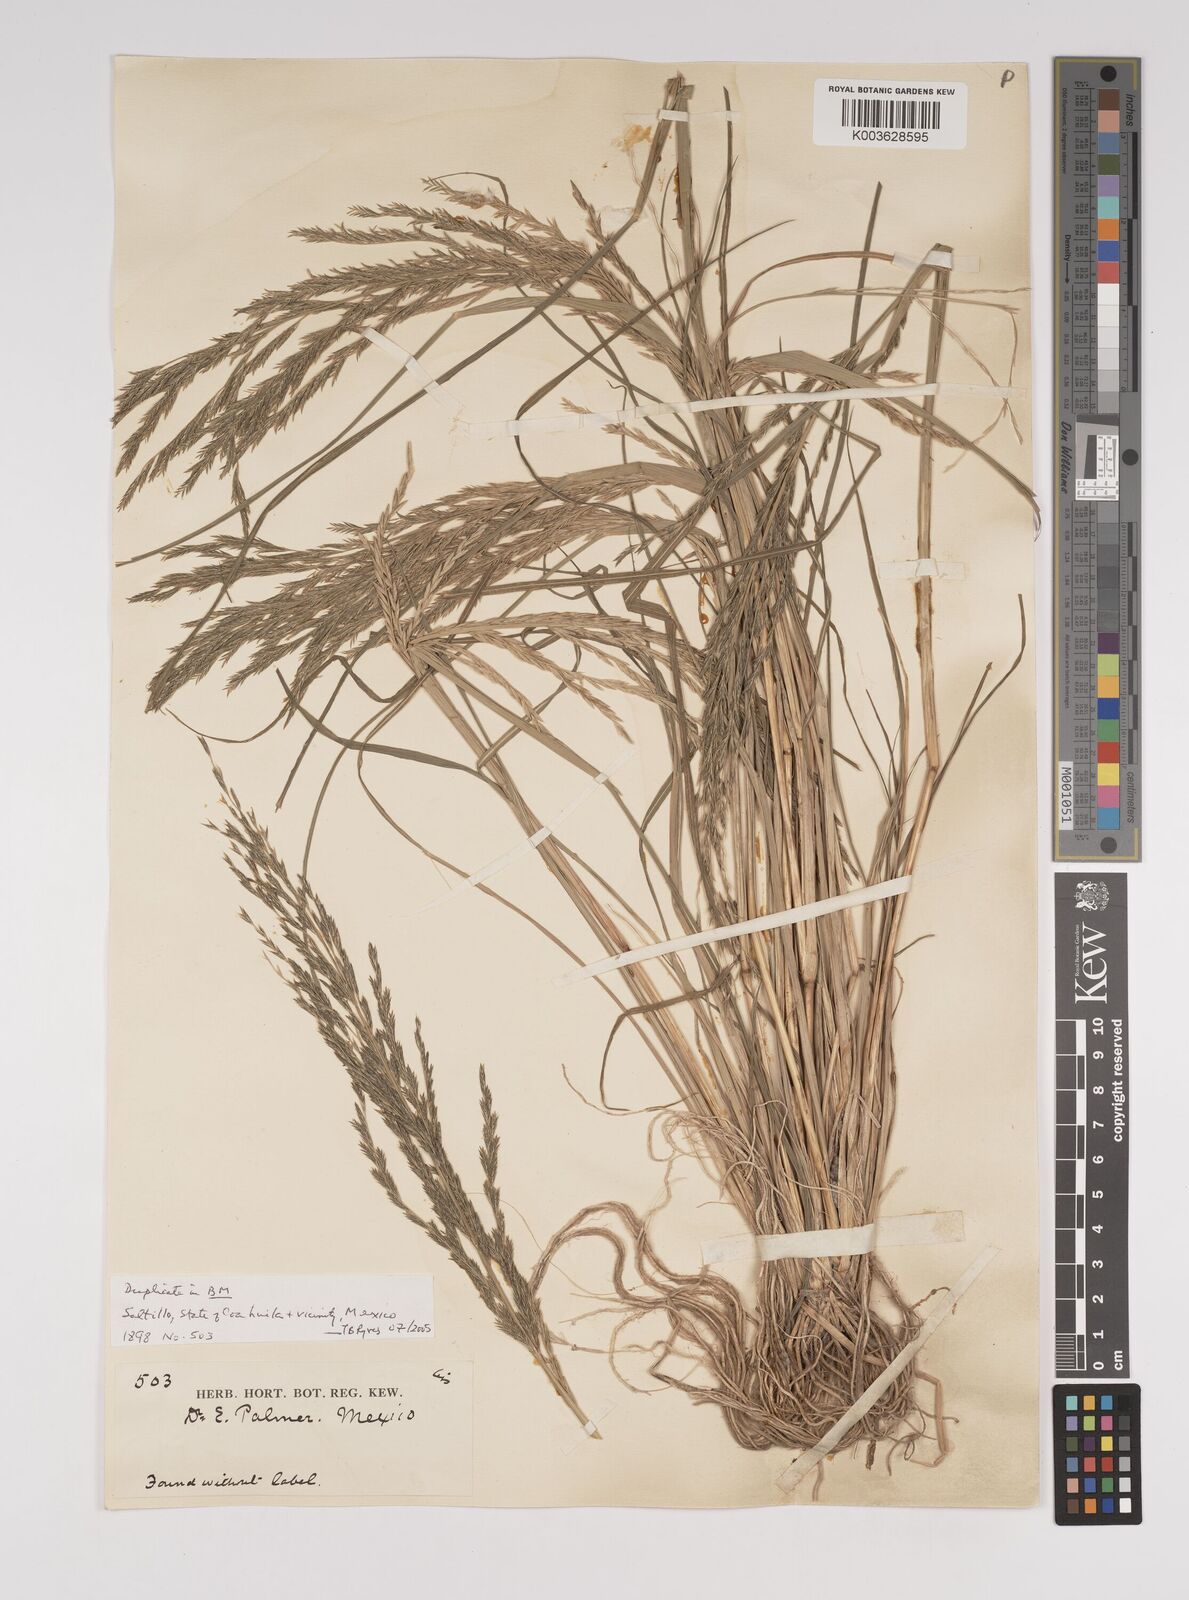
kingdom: Plantae
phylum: Tracheophyta
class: Liliopsida
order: Poales
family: Poaceae
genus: Diplachne
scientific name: Diplachne fusca
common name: Brown beetle grass
